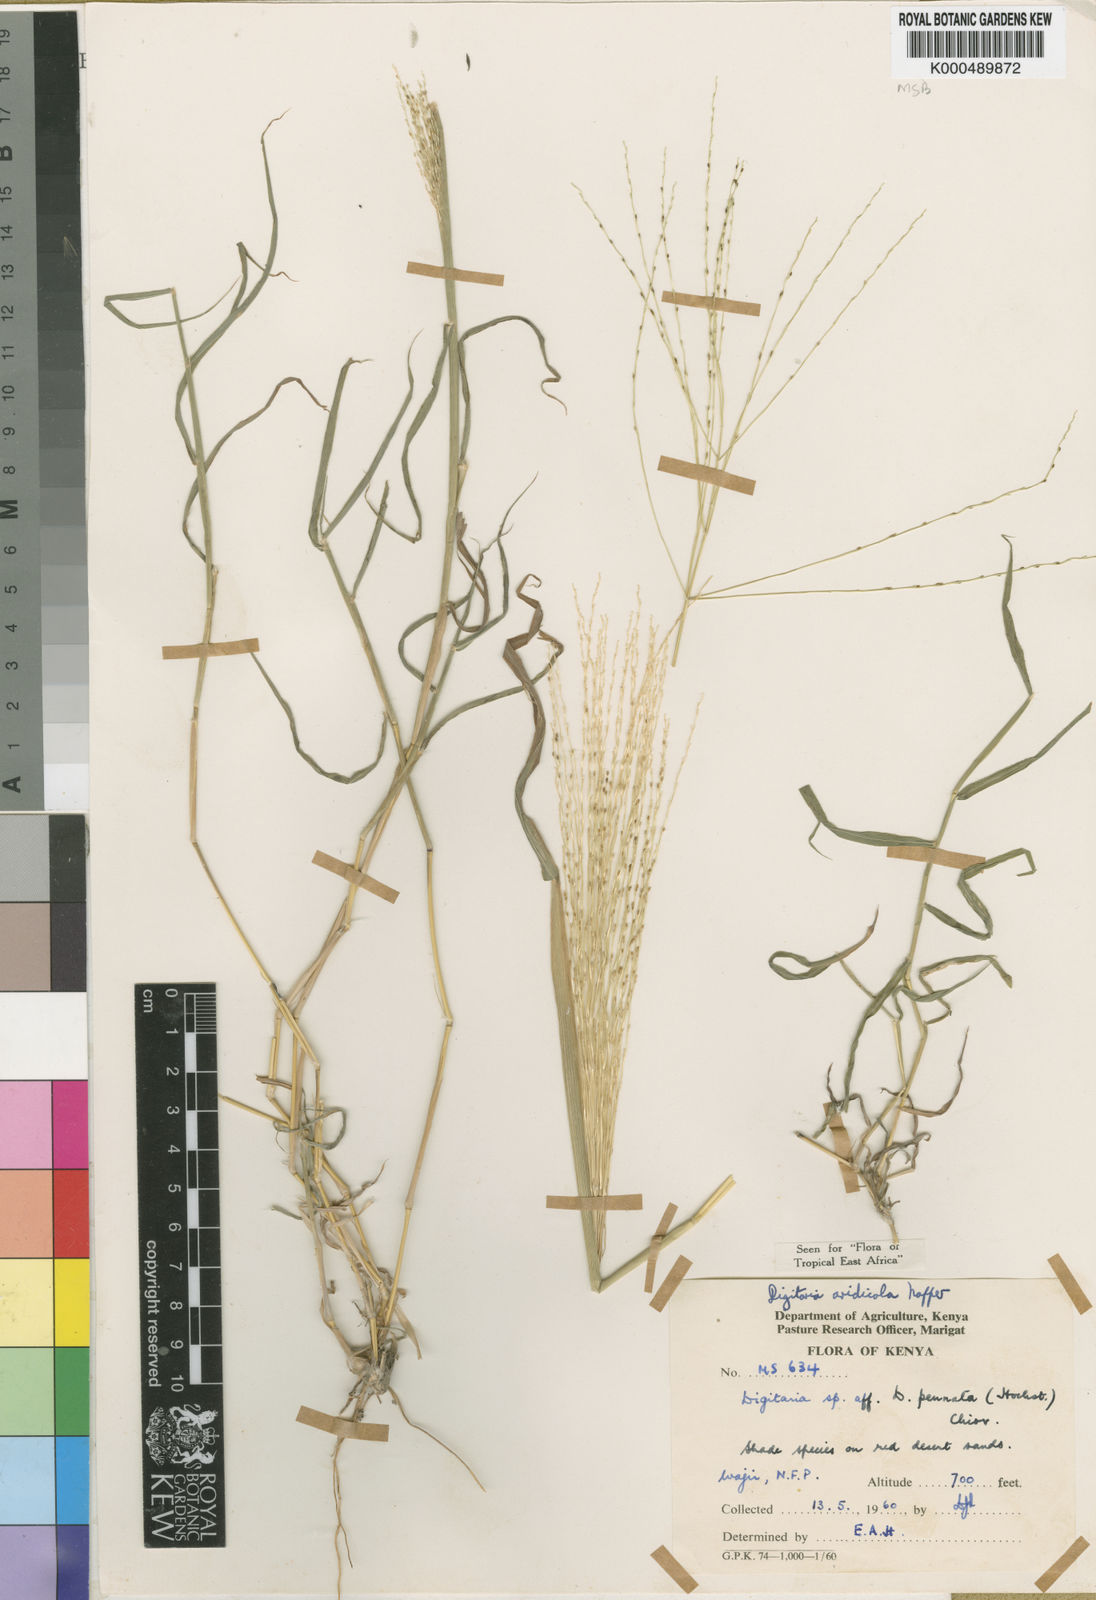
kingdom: Plantae
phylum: Tracheophyta
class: Liliopsida
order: Poales
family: Poaceae
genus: Digitaria
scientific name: Digitaria aridicola
